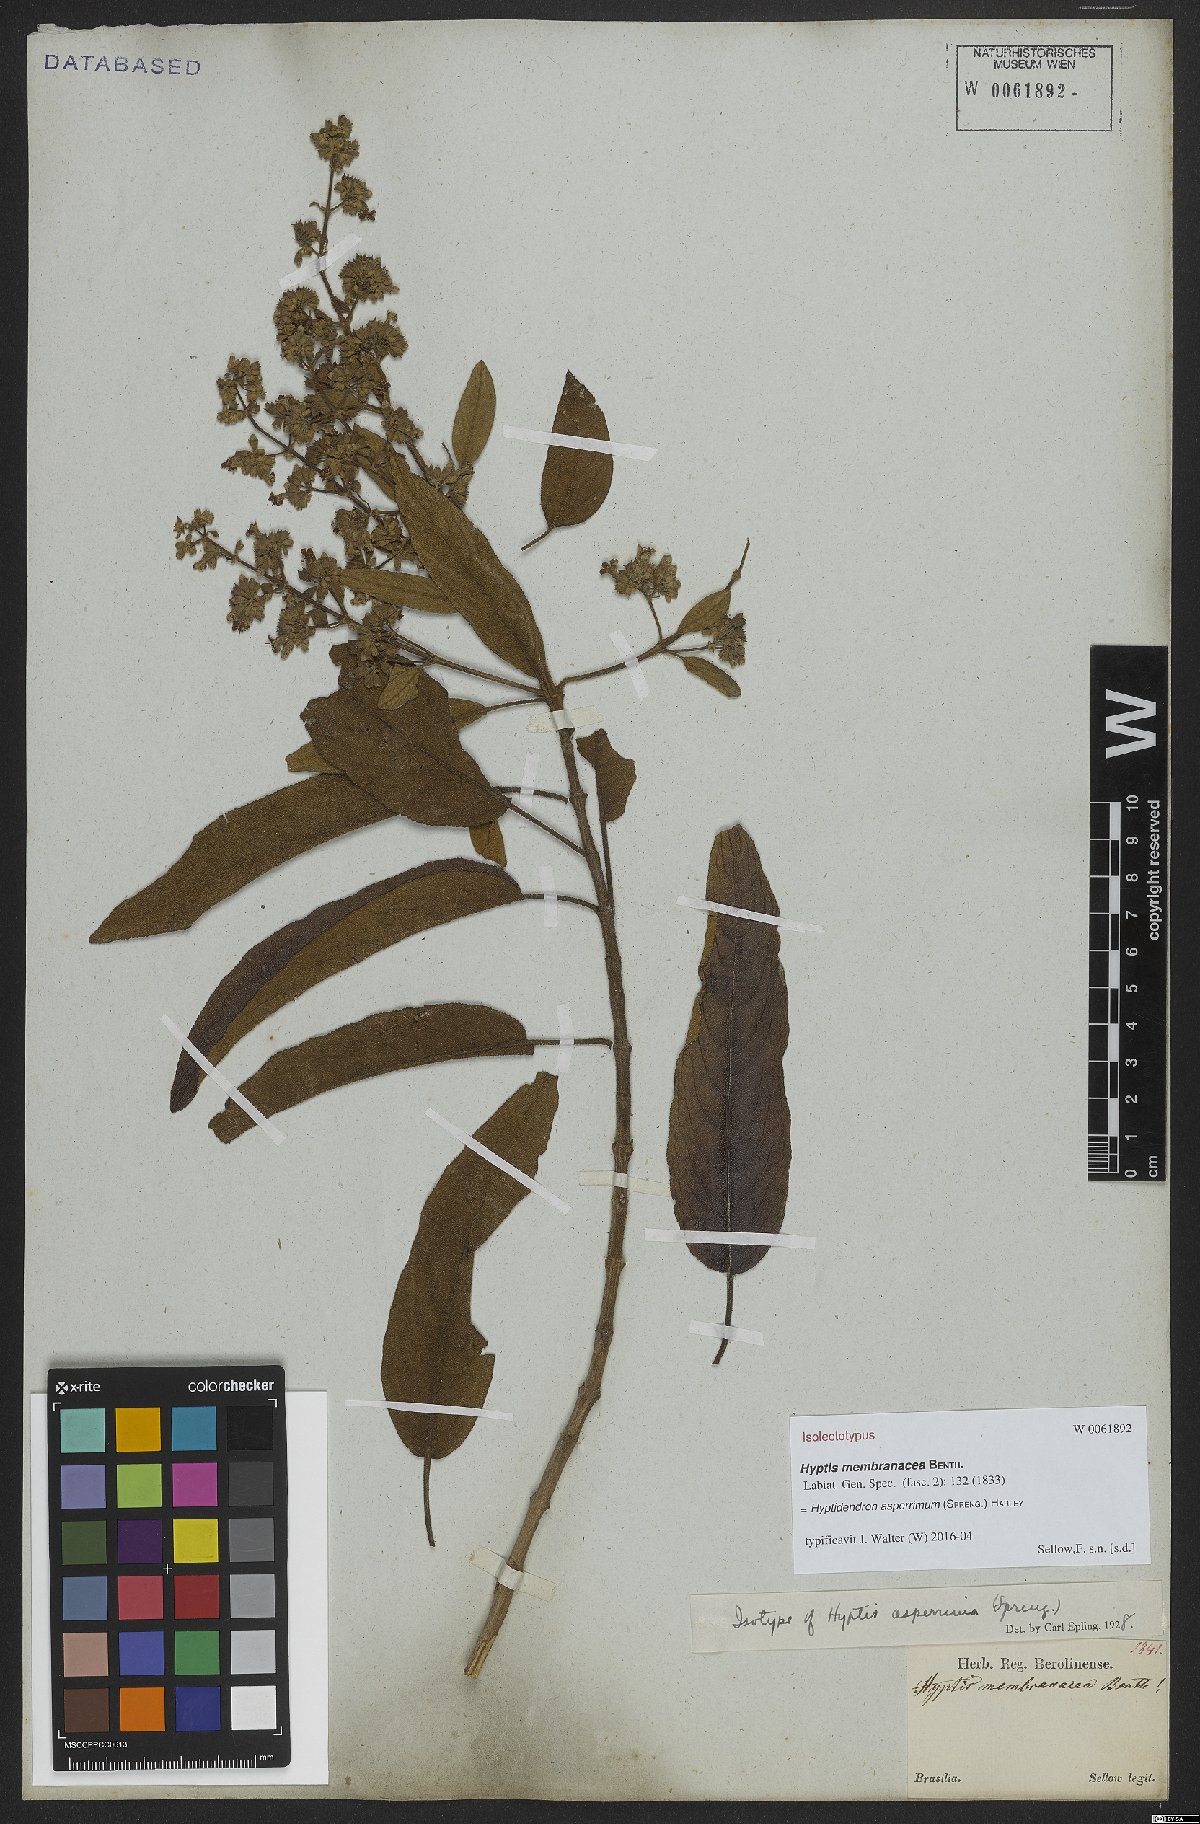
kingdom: Plantae
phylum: Tracheophyta
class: Magnoliopsida
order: Lamiales
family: Lamiaceae
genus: Hyptidendron
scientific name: Hyptidendron asperrimum
